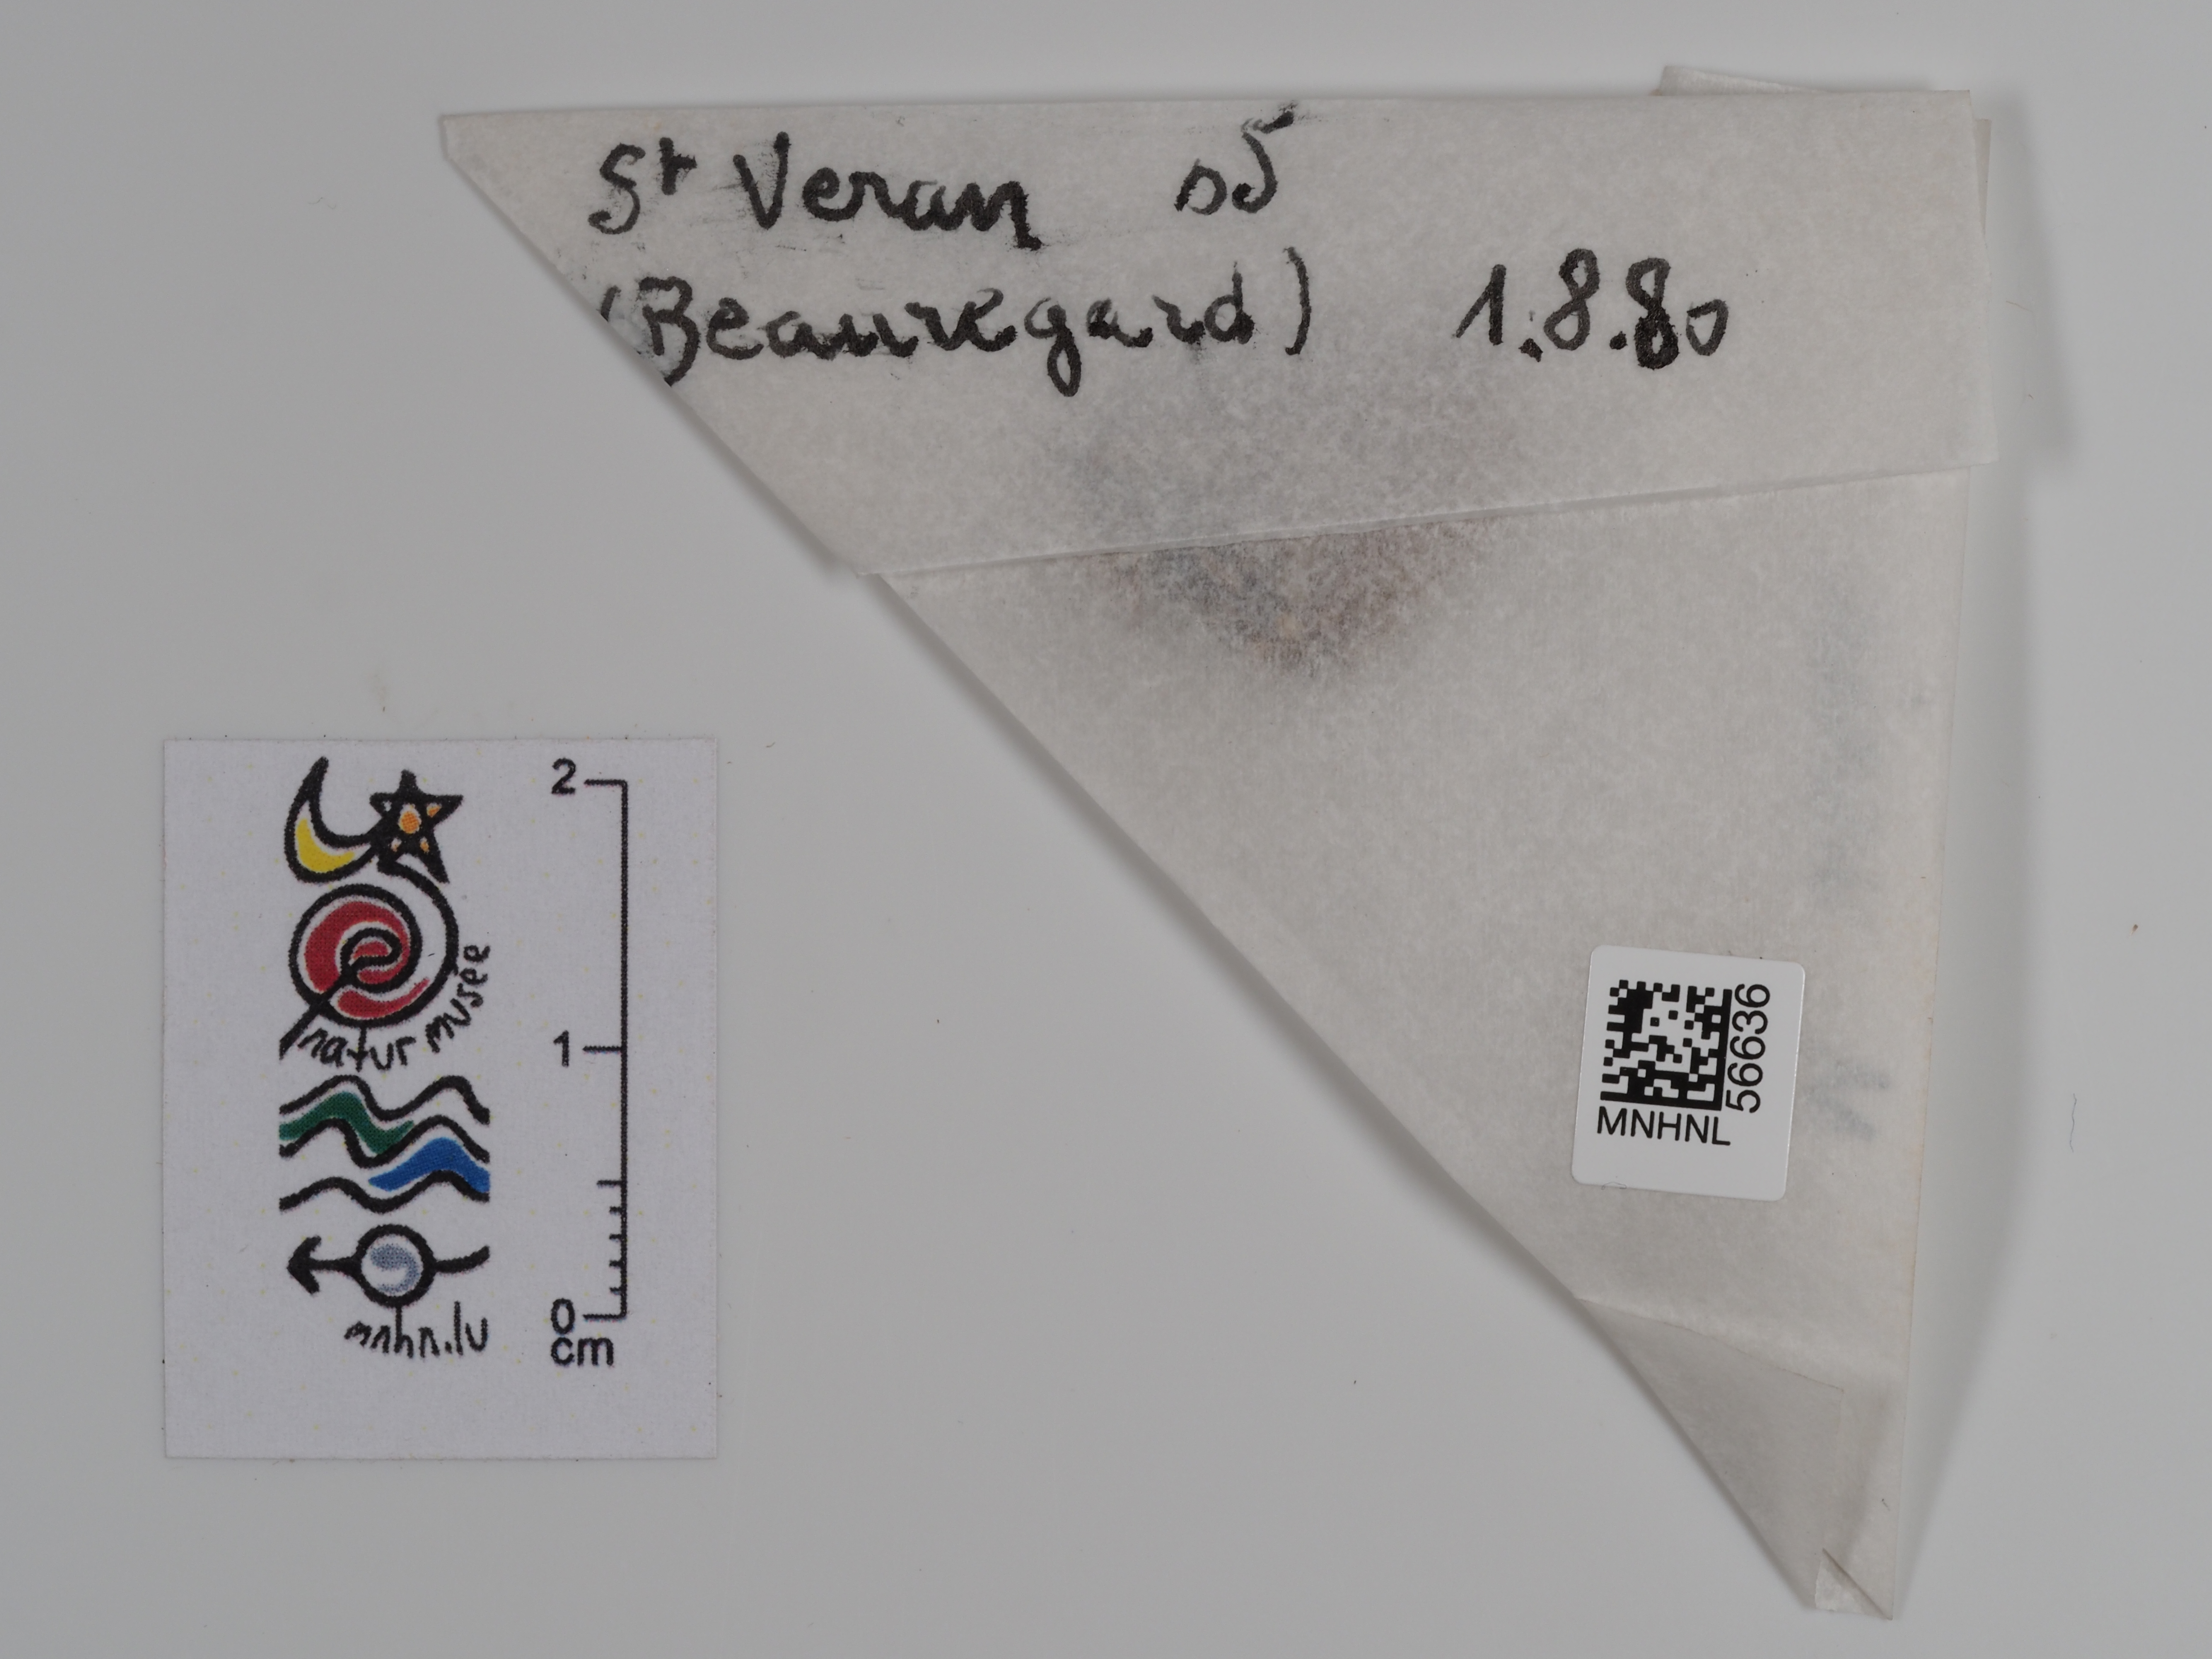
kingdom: Animalia
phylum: Arthropoda
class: Insecta
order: Lepidoptera
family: Nymphalidae
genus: Melitaea
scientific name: Melitaea varia
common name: Grisons fritillary
